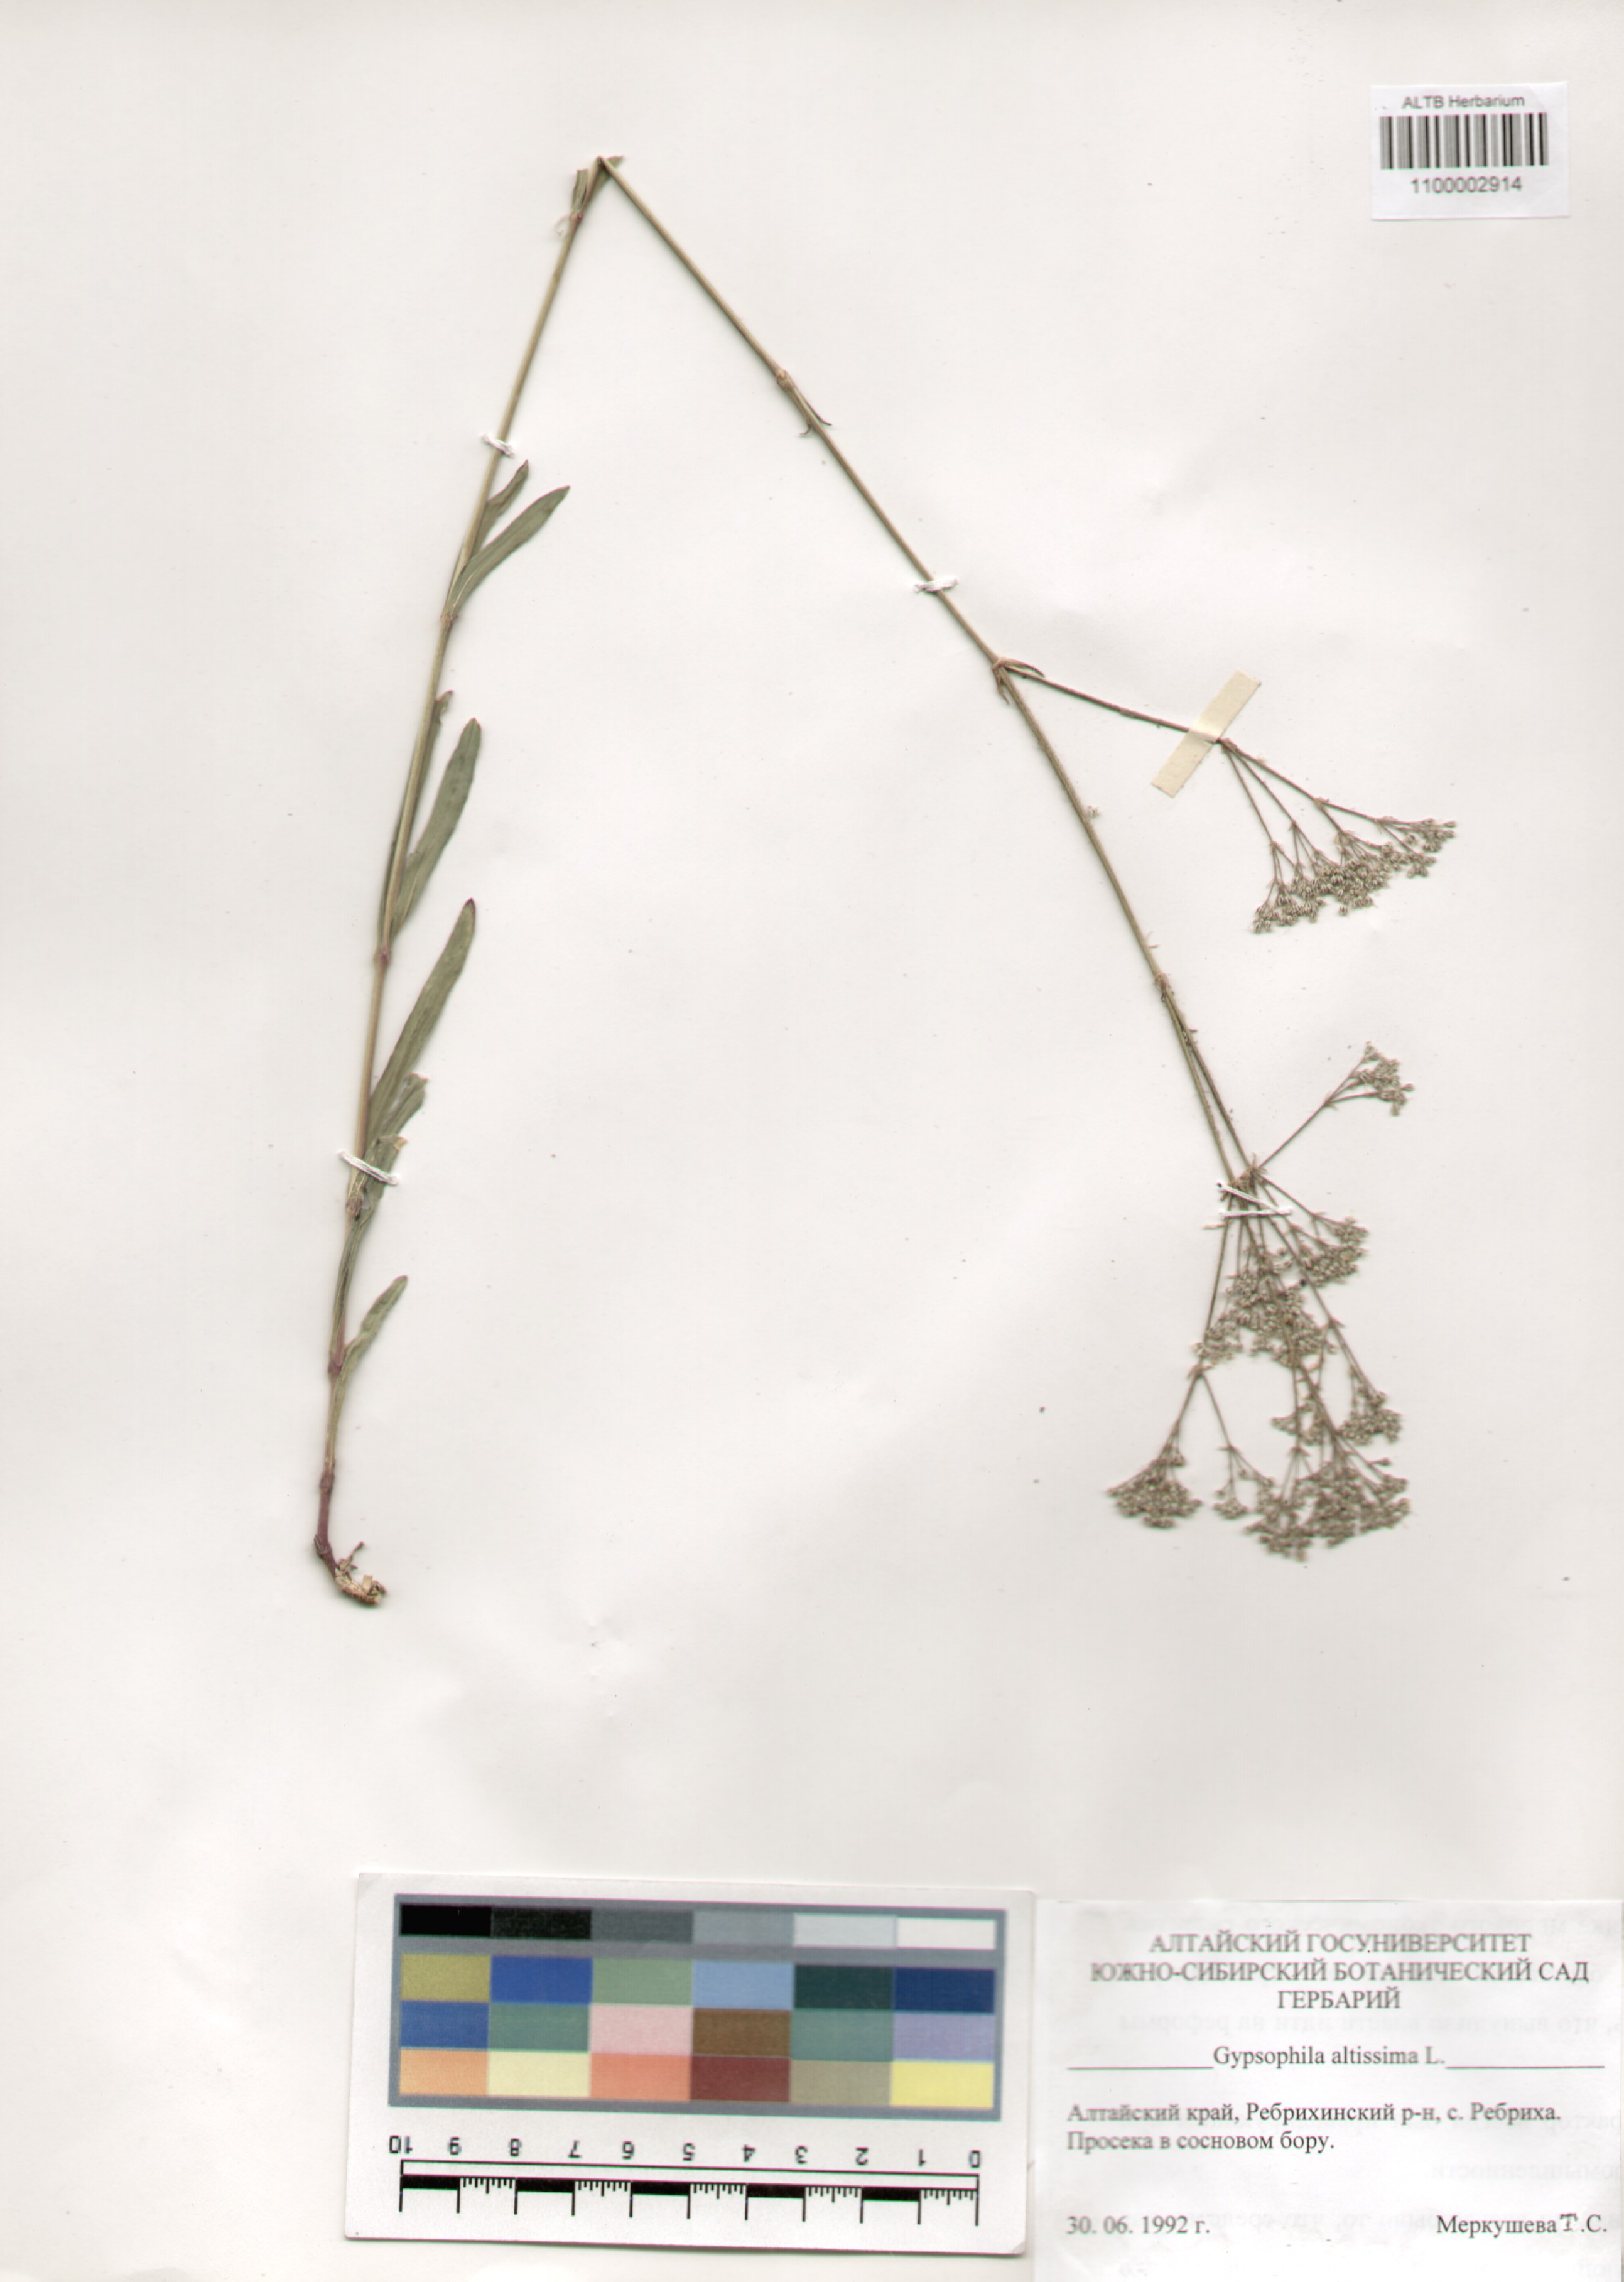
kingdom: Plantae
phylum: Tracheophyta
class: Magnoliopsida
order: Caryophyllales
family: Caryophyllaceae
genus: Gypsophila
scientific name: Gypsophila altissima
